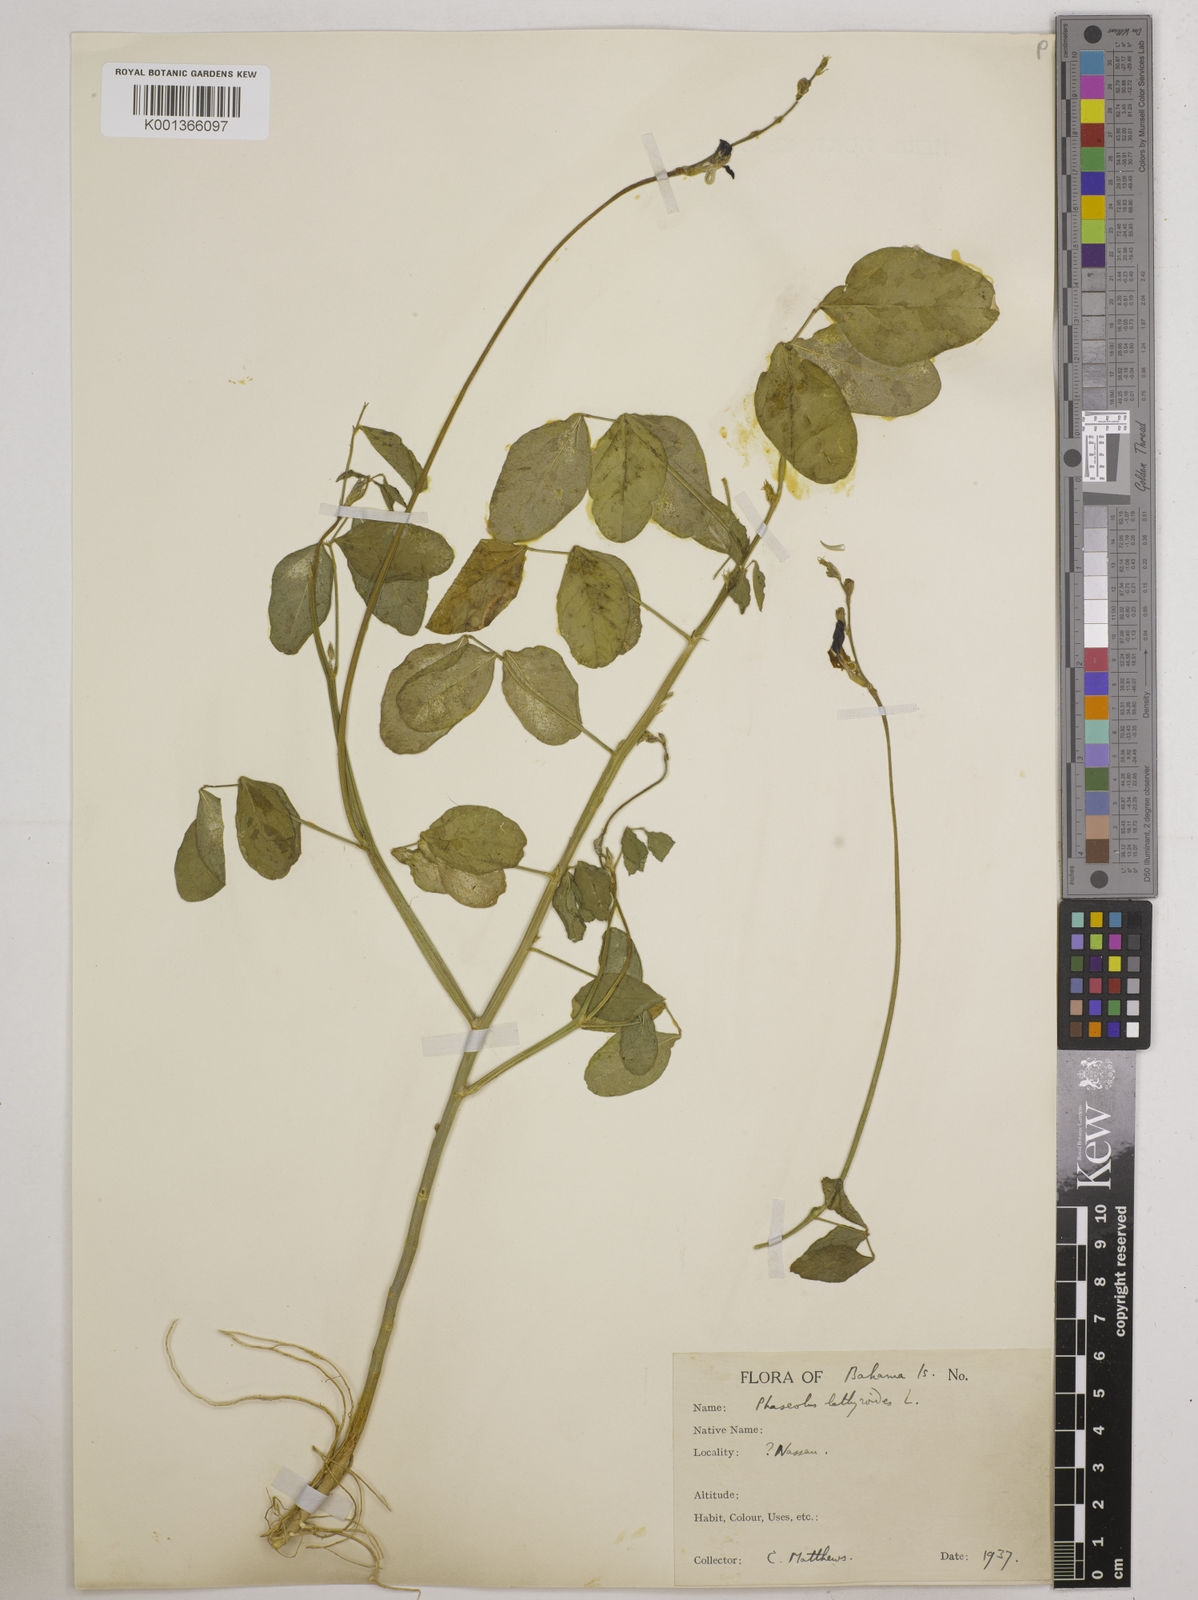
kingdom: Plantae
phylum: Tracheophyta
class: Magnoliopsida
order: Fabales
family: Fabaceae
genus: Macroptilium
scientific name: Macroptilium lathyroides
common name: Wild bushbean
